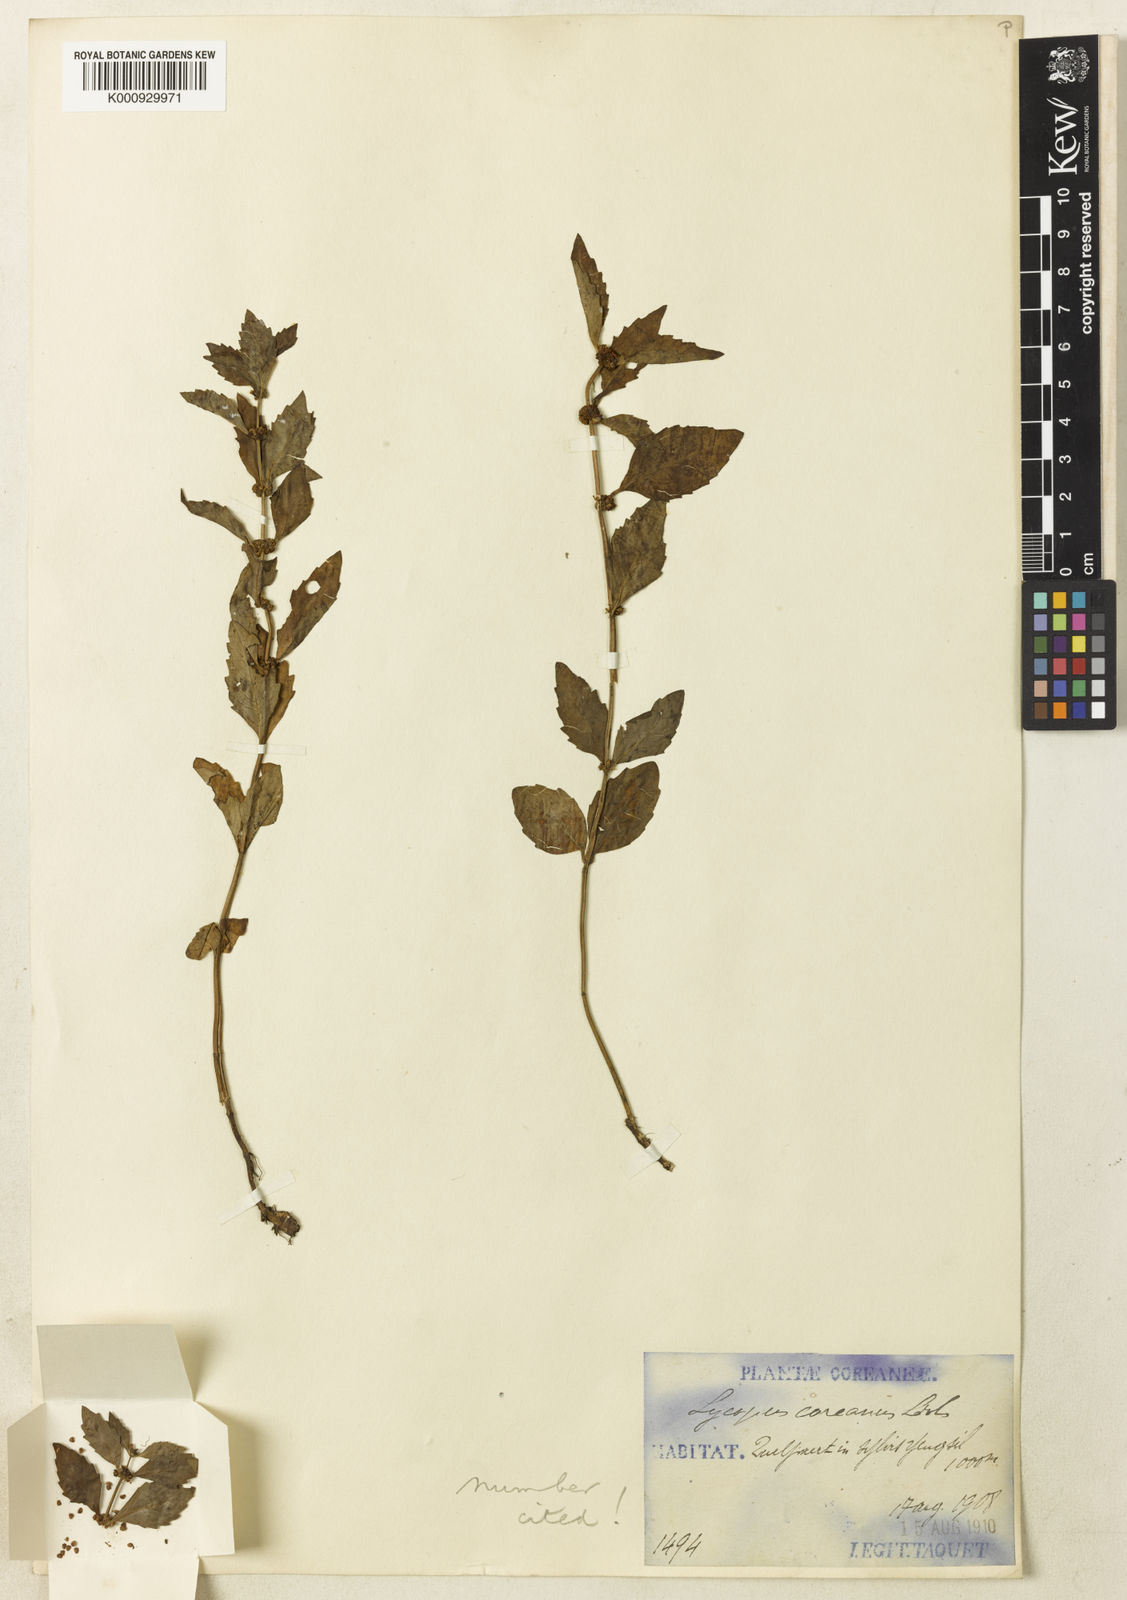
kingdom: Plantae
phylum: Tracheophyta
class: Magnoliopsida
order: Lamiales
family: Lamiaceae
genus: Lycopus
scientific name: Lycopus
